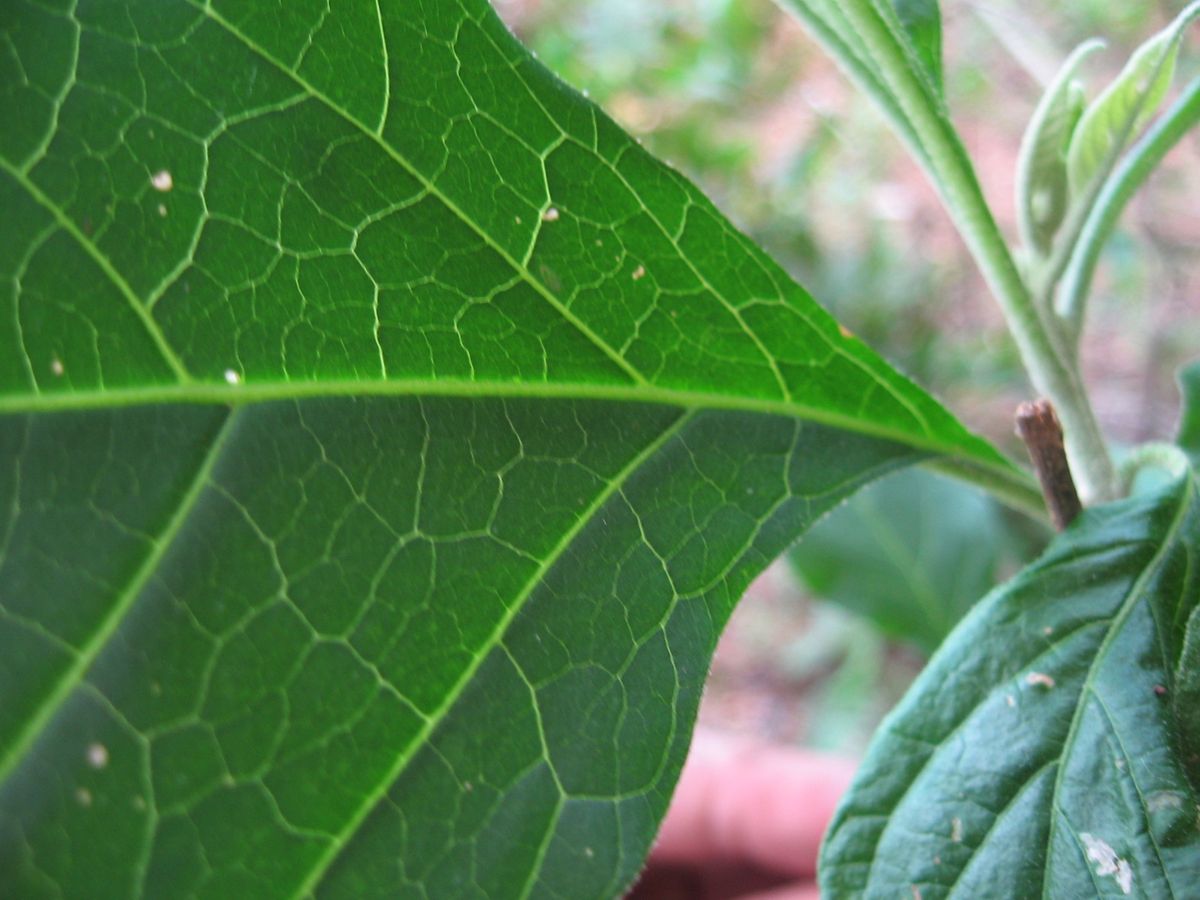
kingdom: Plantae
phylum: Tracheophyta
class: Magnoliopsida
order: Solanales
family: Solanaceae
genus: Solanum
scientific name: Solanum hazenii
